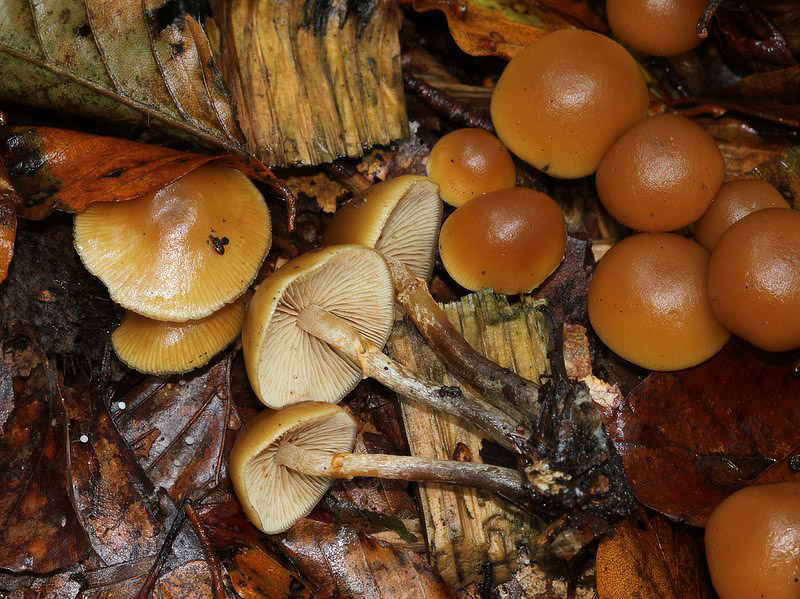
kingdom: Fungi
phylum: Basidiomycota
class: Agaricomycetes
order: Agaricales
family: Hymenogastraceae
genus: Galerina
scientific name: Galerina marginata
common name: randbæltet hjelmhat
